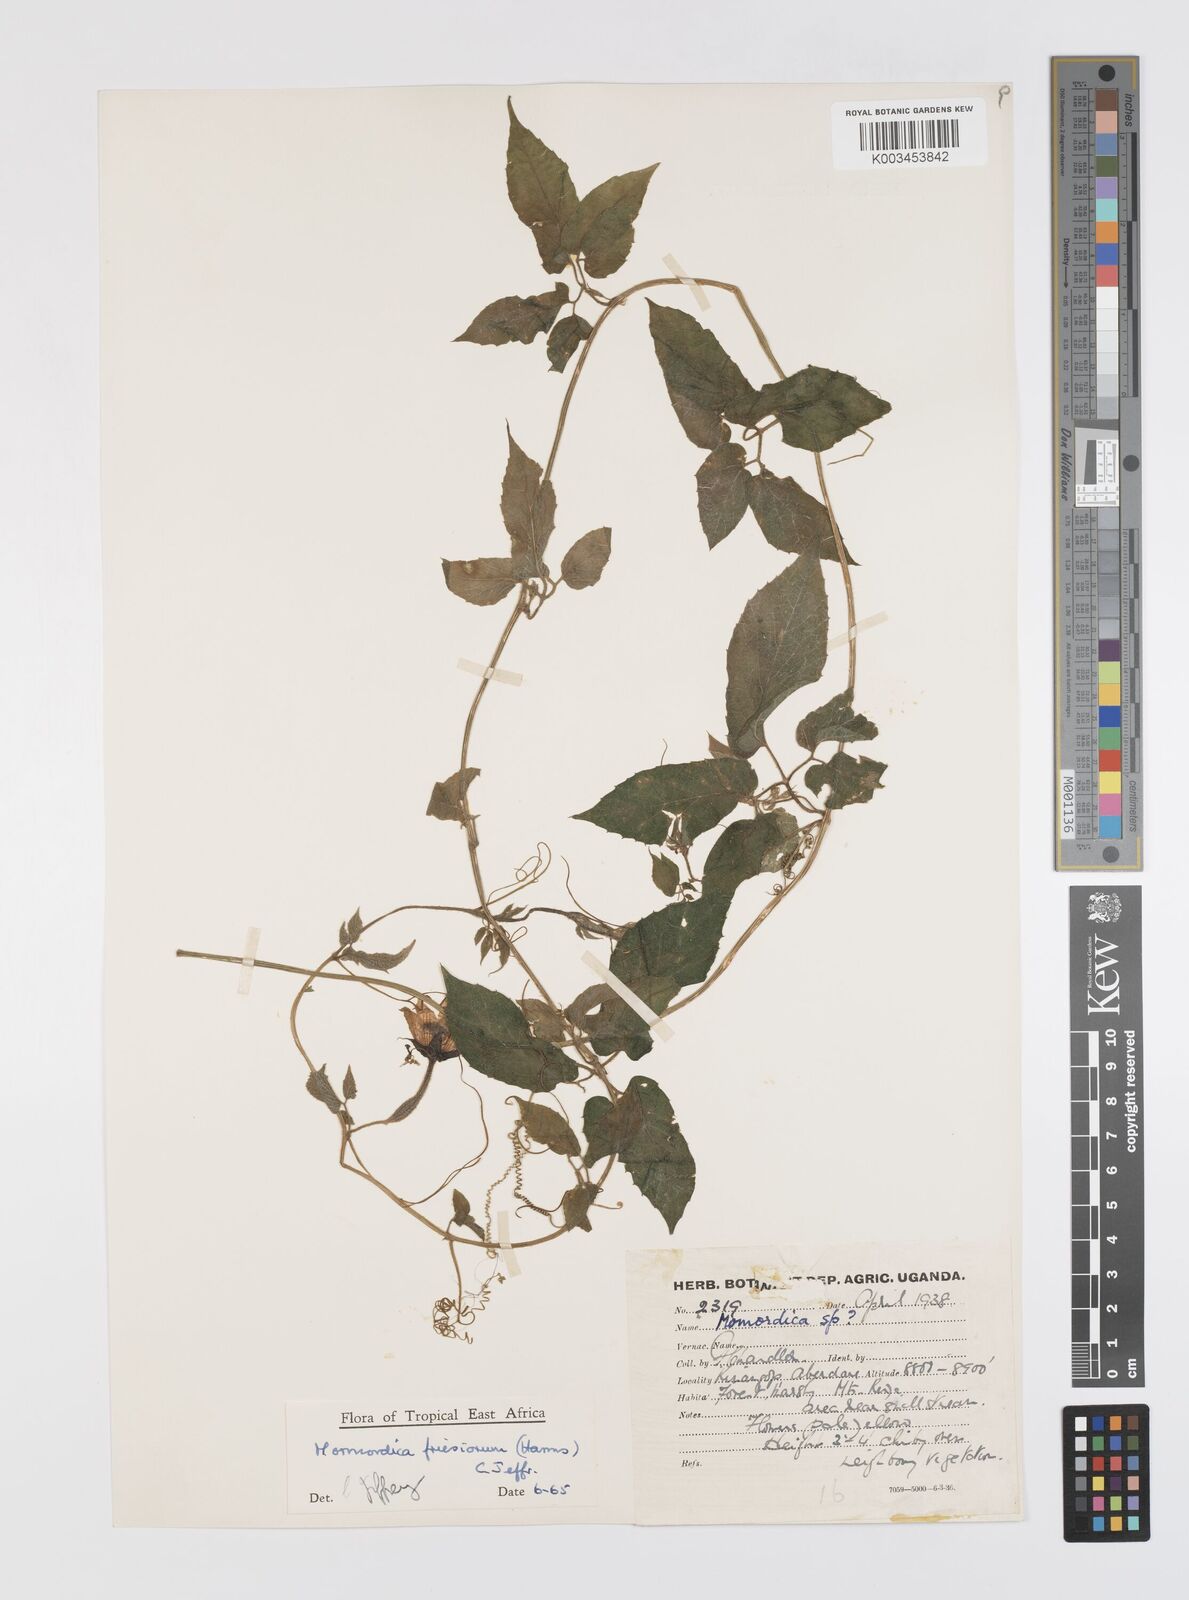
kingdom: Plantae
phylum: Tracheophyta
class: Magnoliopsida
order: Cucurbitales
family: Cucurbitaceae
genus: Momordica
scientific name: Momordica friesiorum
